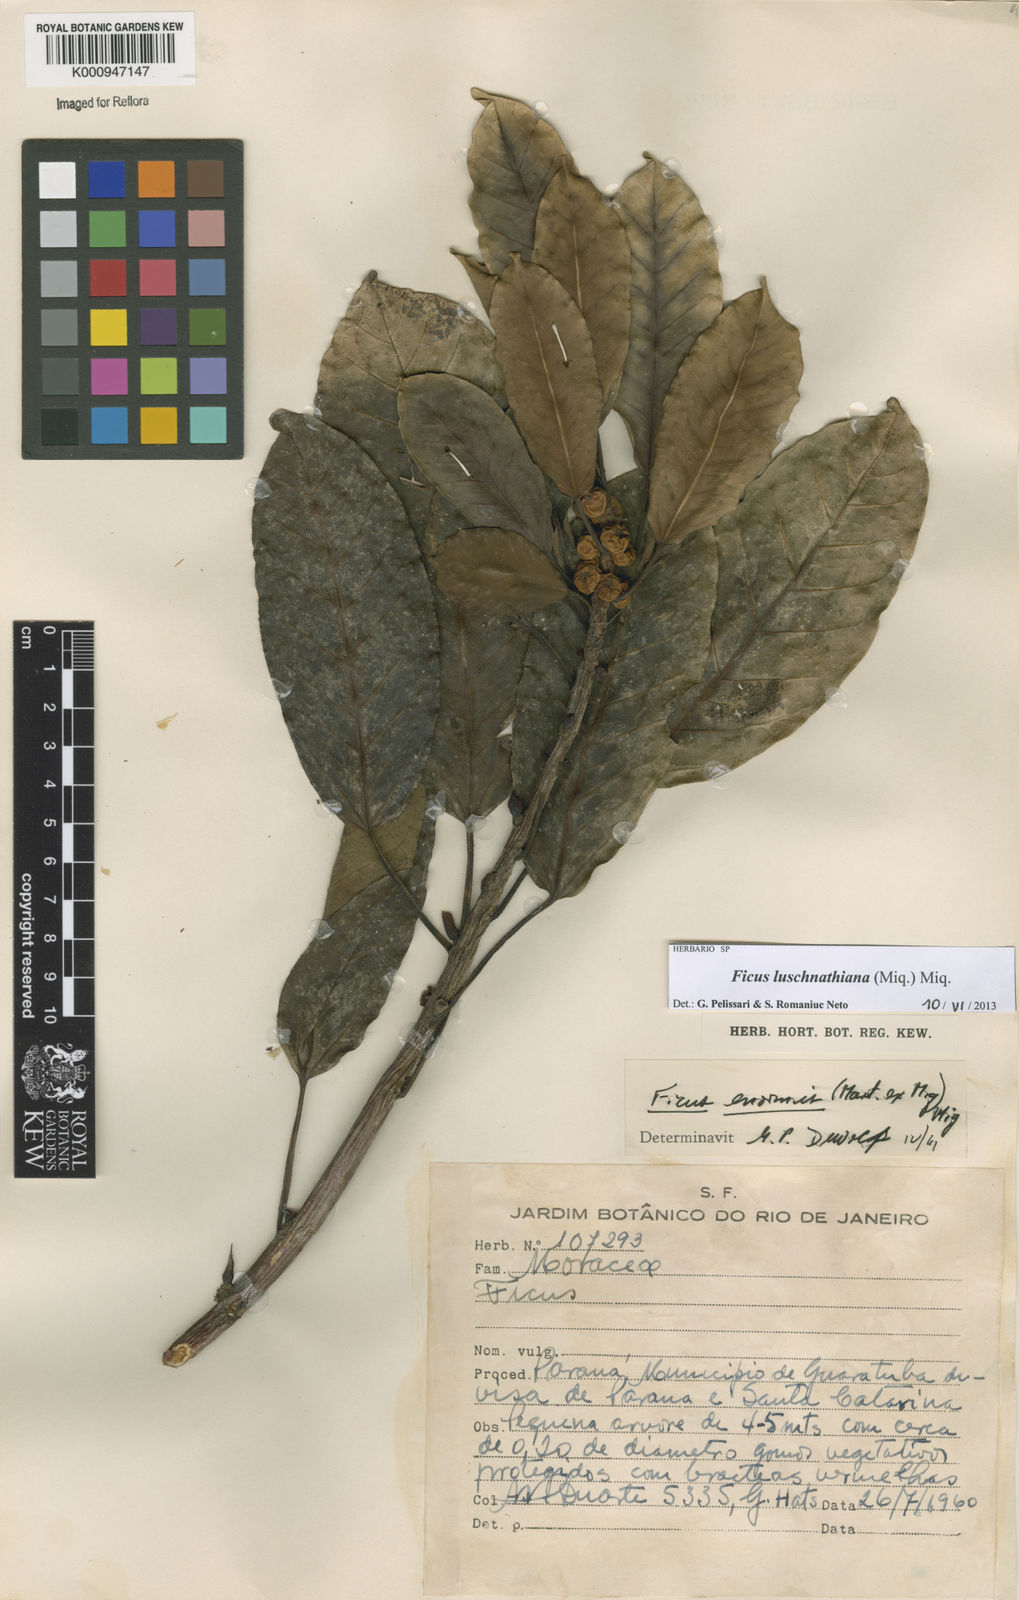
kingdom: Plantae
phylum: Tracheophyta
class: Magnoliopsida
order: Rosales
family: Moraceae
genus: Ficus
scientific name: Ficus luschnathiana
